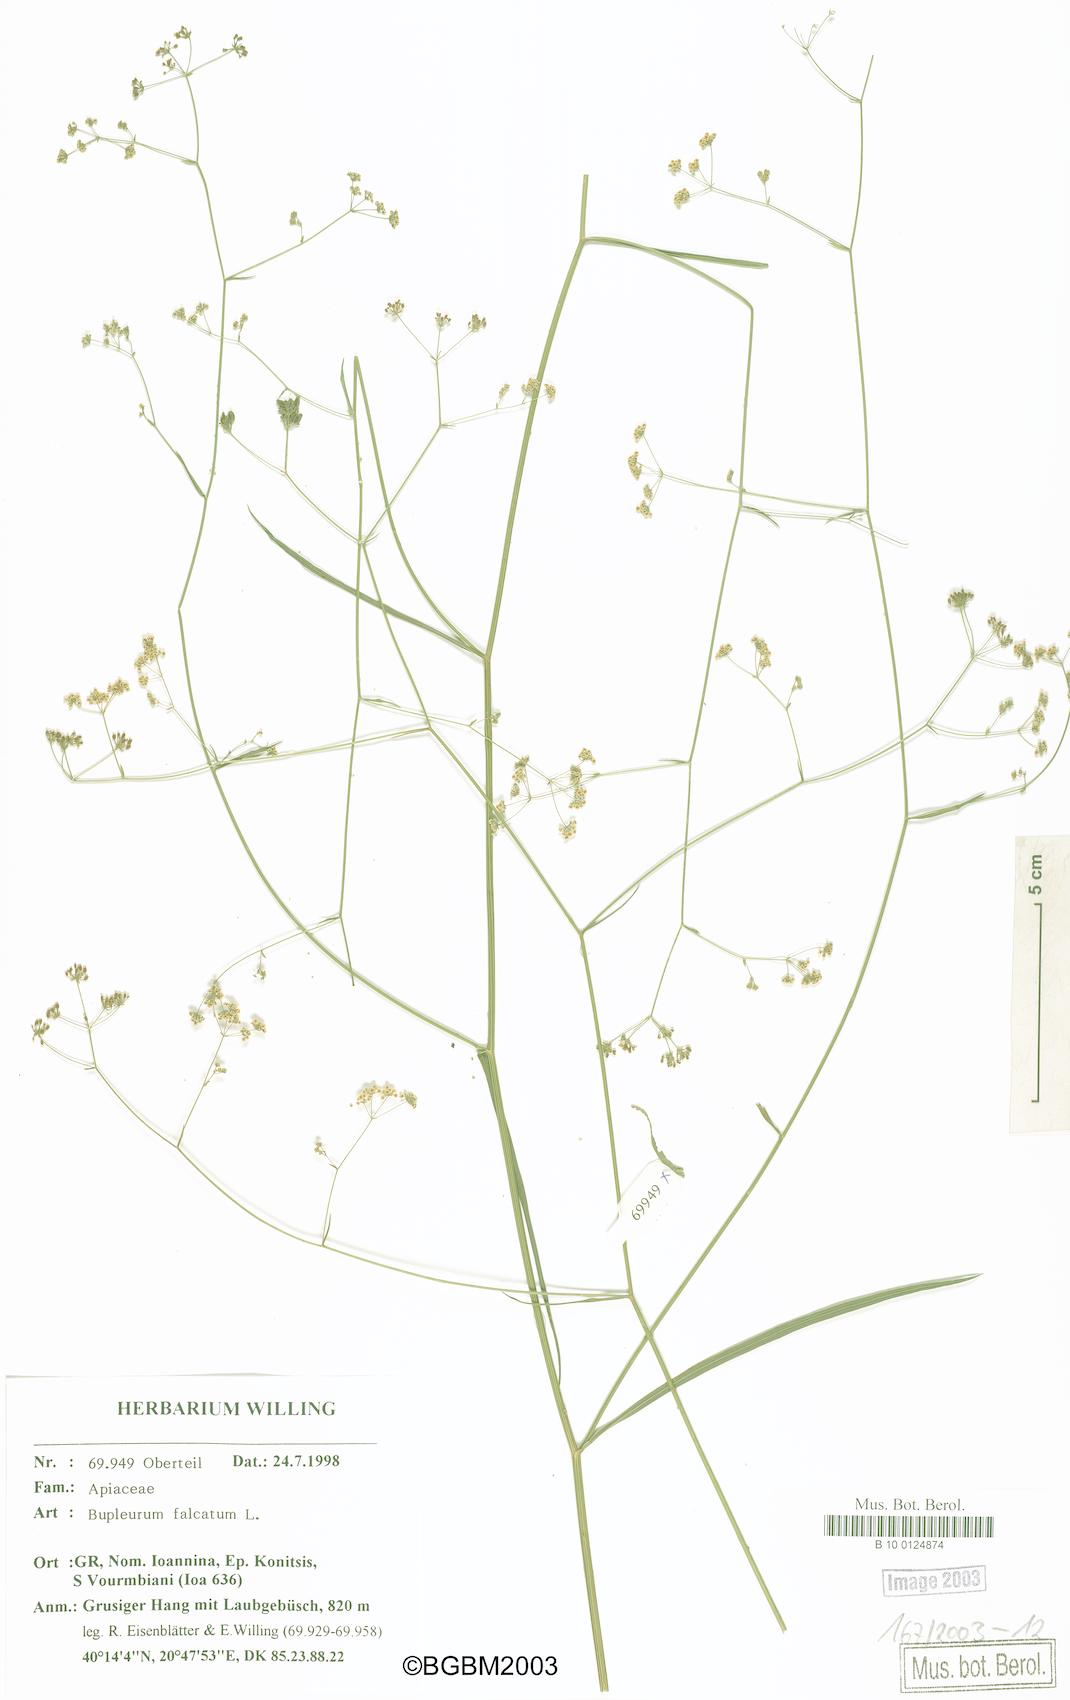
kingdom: Plantae
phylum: Tracheophyta
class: Magnoliopsida
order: Apiales
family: Apiaceae
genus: Bupleurum
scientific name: Bupleurum falcatum
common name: Sickle-leaved hare's-ear
